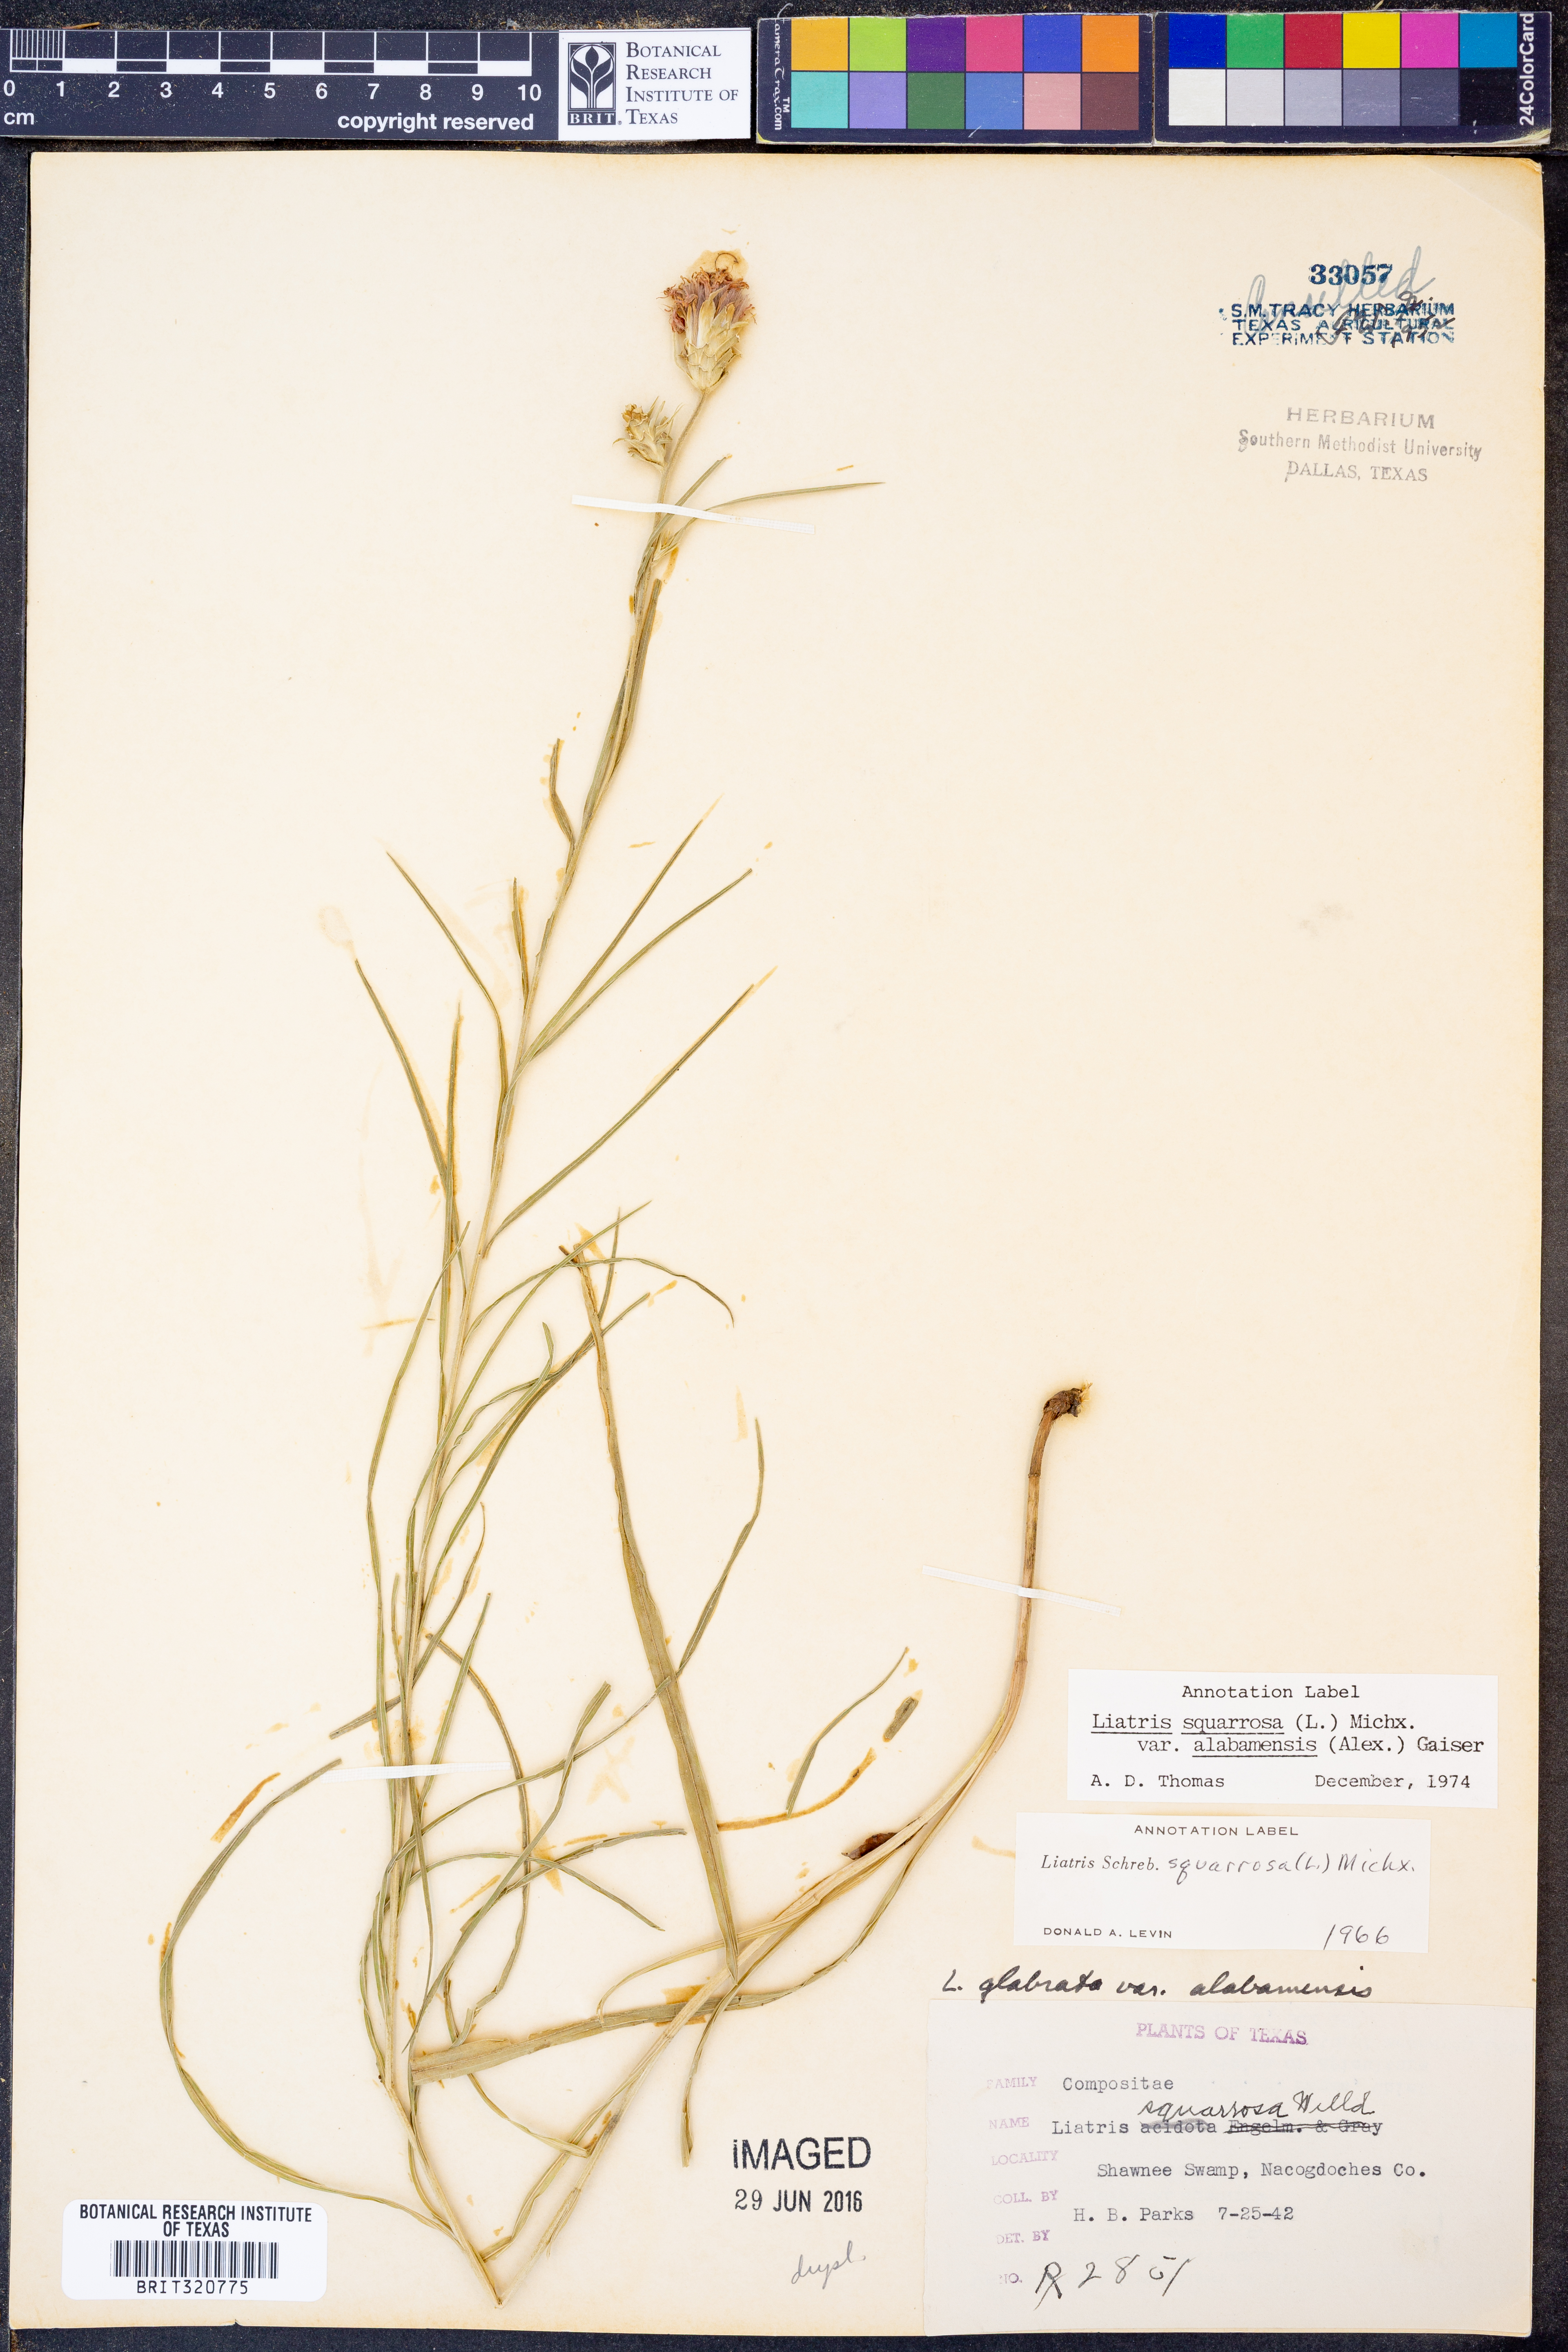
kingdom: Plantae
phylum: Tracheophyta
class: Magnoliopsida
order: Asterales
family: Asteraceae
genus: Liatris
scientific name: Liatris squarrosa
